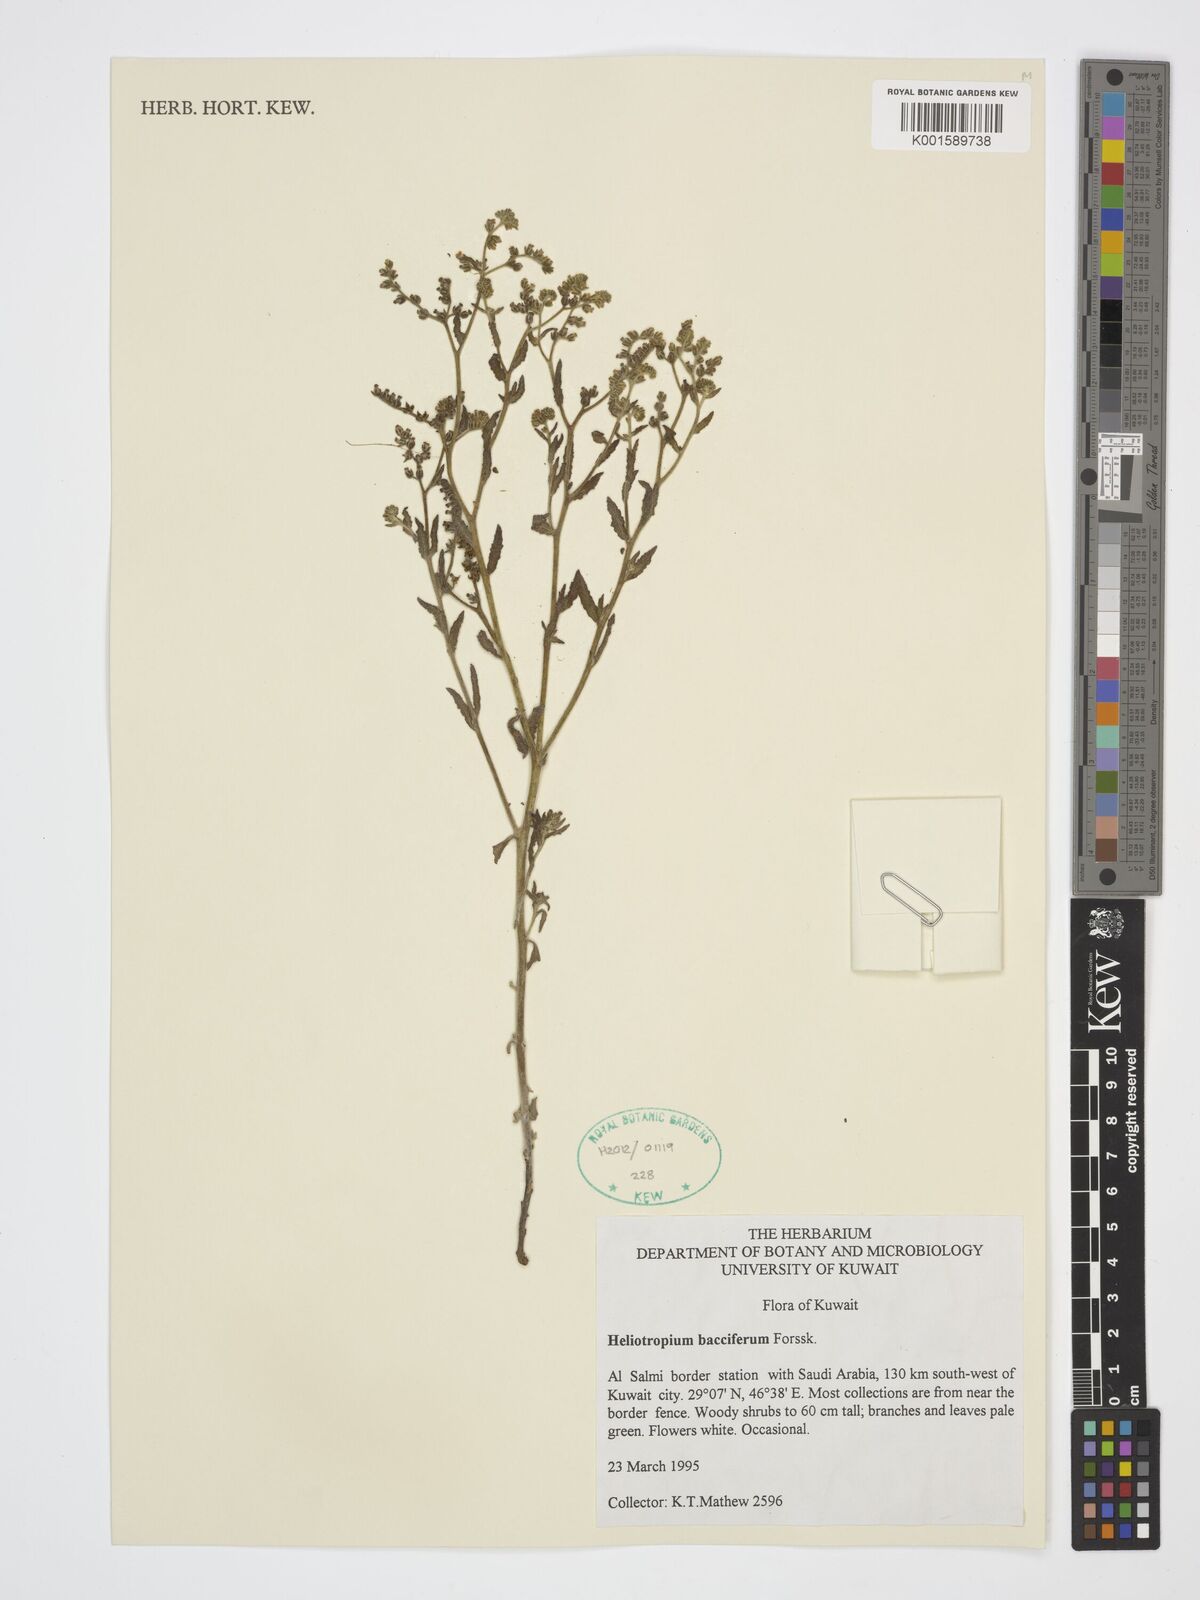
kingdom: Plantae
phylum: Tracheophyta
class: Magnoliopsida
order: Boraginales
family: Heliotropiaceae
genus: Heliotropium
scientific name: Heliotropium bacciferum
